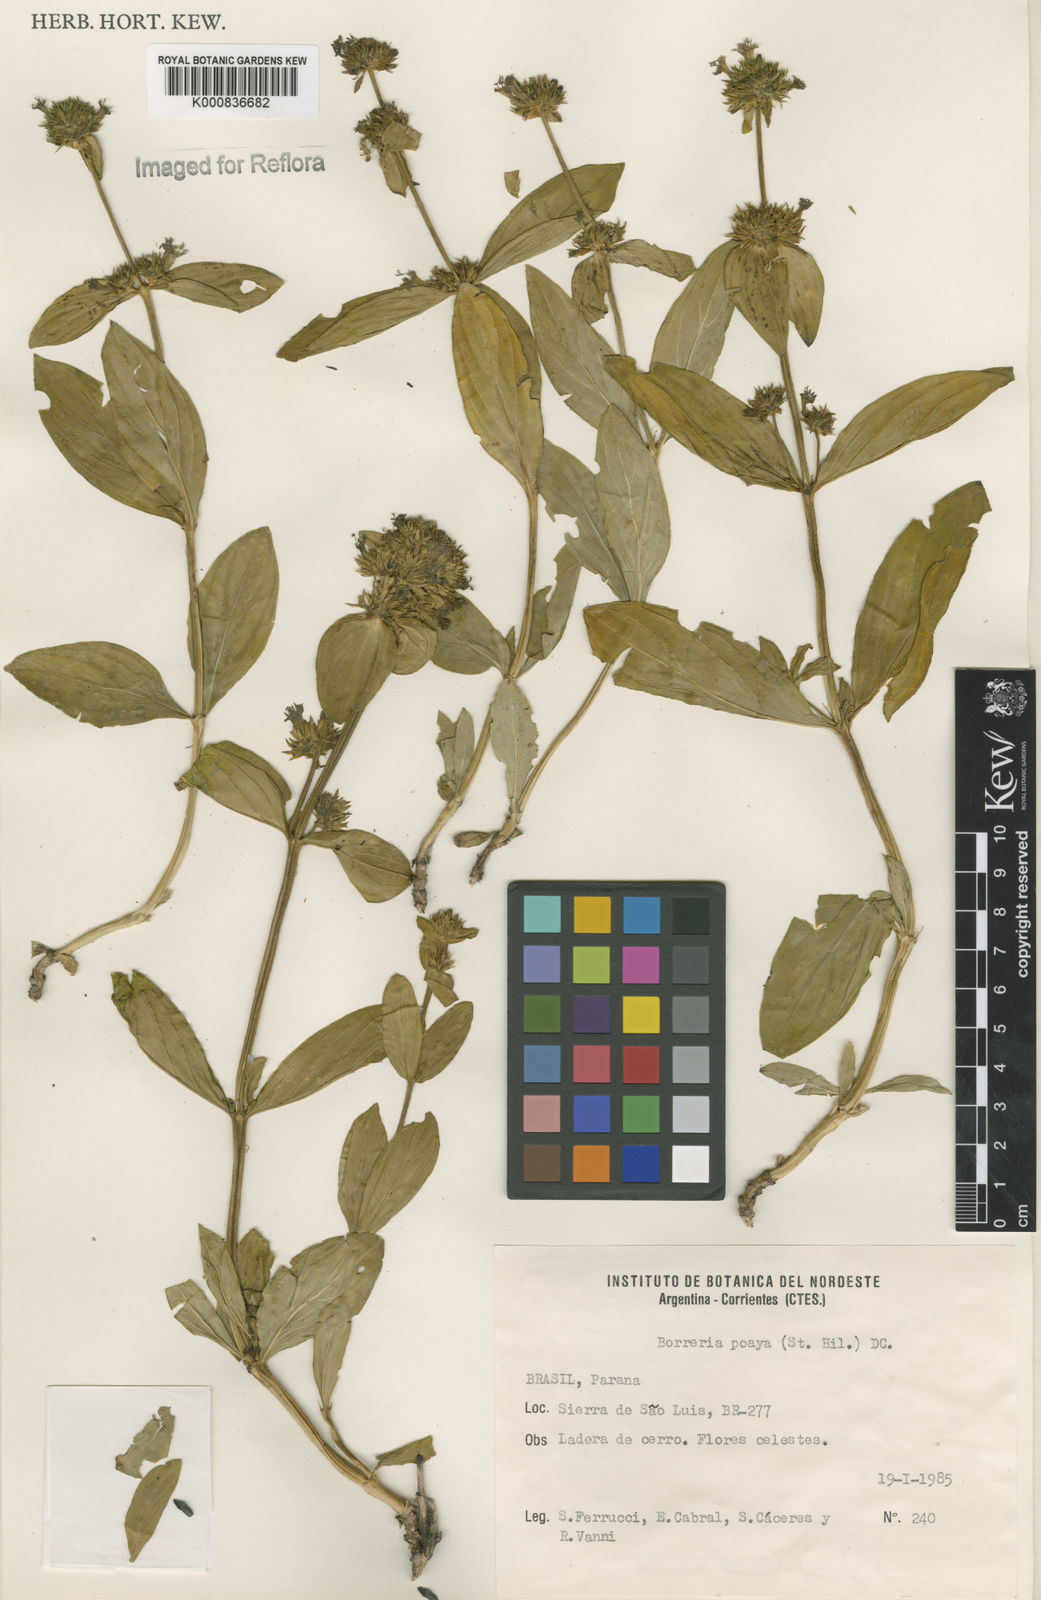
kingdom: Plantae
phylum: Tracheophyta
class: Magnoliopsida
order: Gentianales
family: Rubiaceae
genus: Spermacoce
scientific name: Spermacoce poaya
